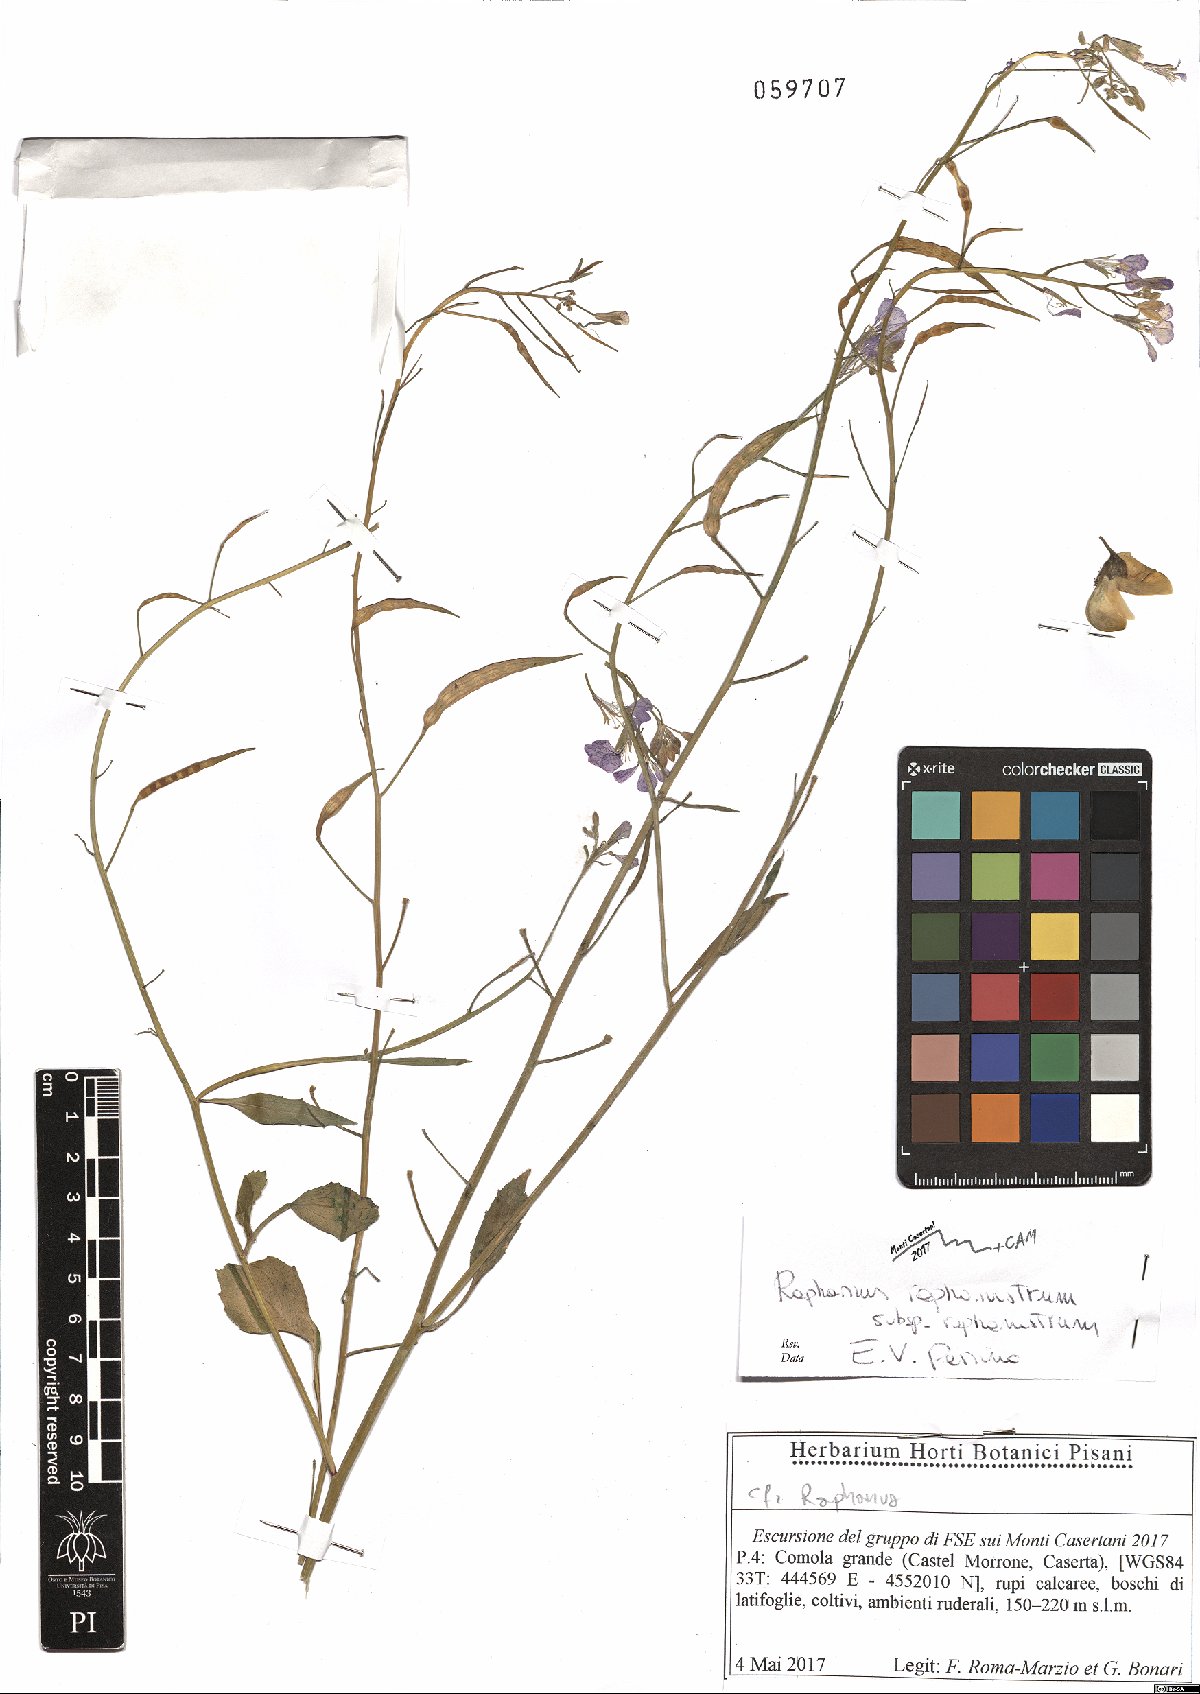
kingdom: Plantae
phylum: Tracheophyta
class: Magnoliopsida
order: Brassicales
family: Brassicaceae
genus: Raphanus
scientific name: Raphanus raphanistrum
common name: Wild radish
